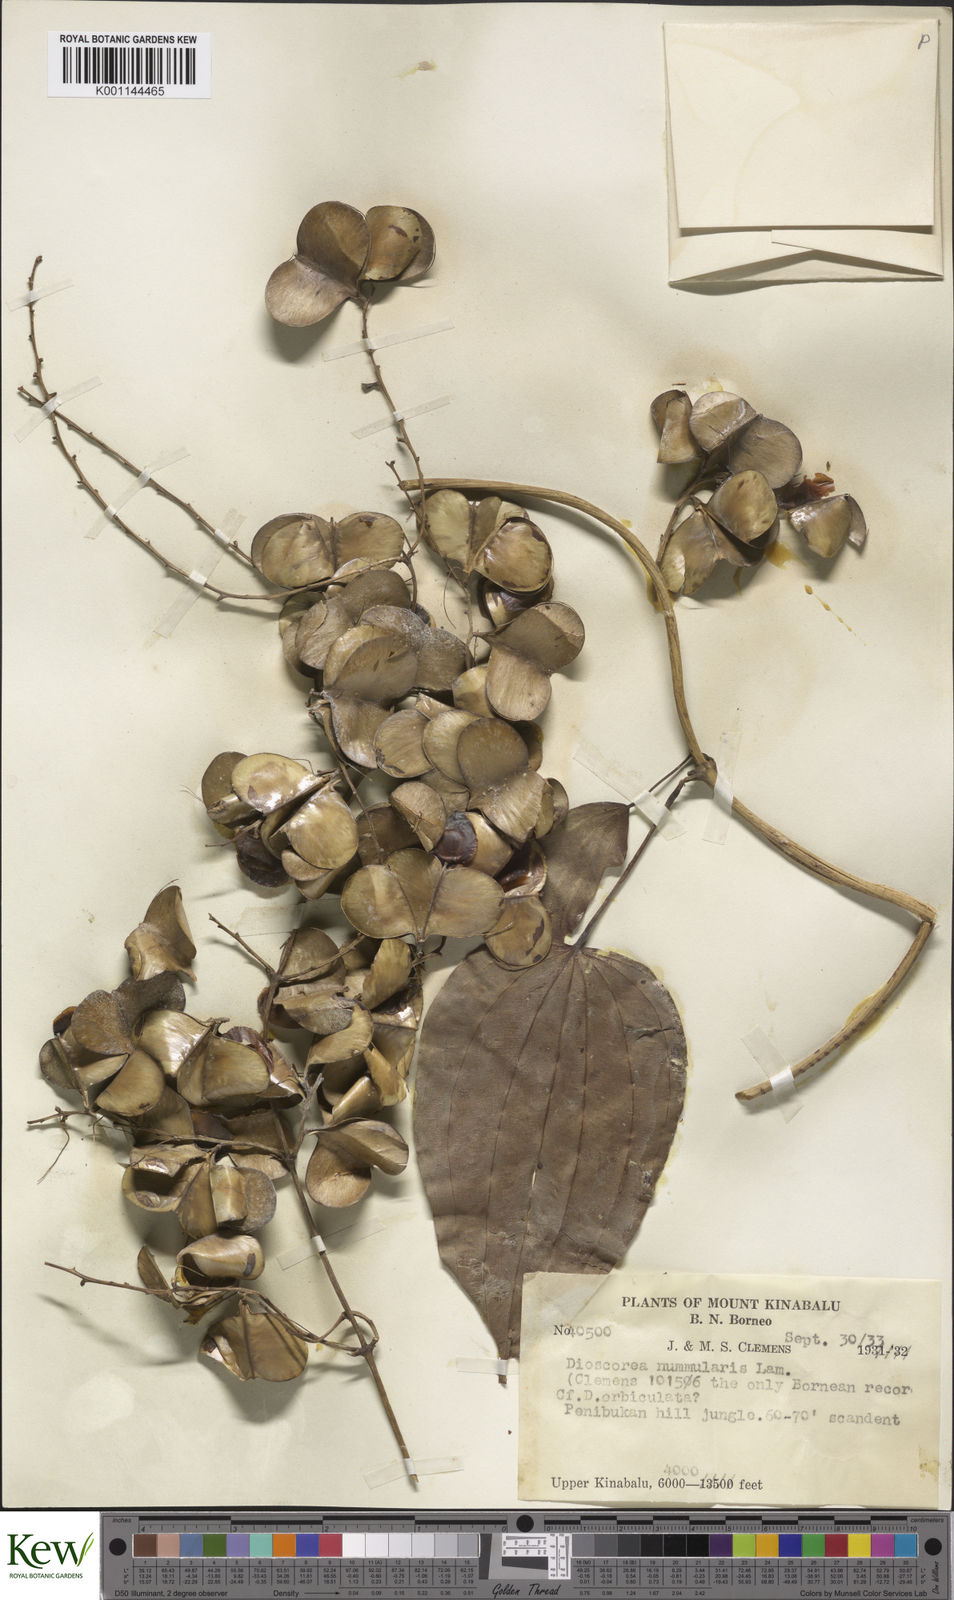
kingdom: Plantae
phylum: Tracheophyta
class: Liliopsida
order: Dioscoreales
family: Dioscoreaceae
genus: Dioscorea
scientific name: Dioscorea nummularia
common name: Pacific yam
